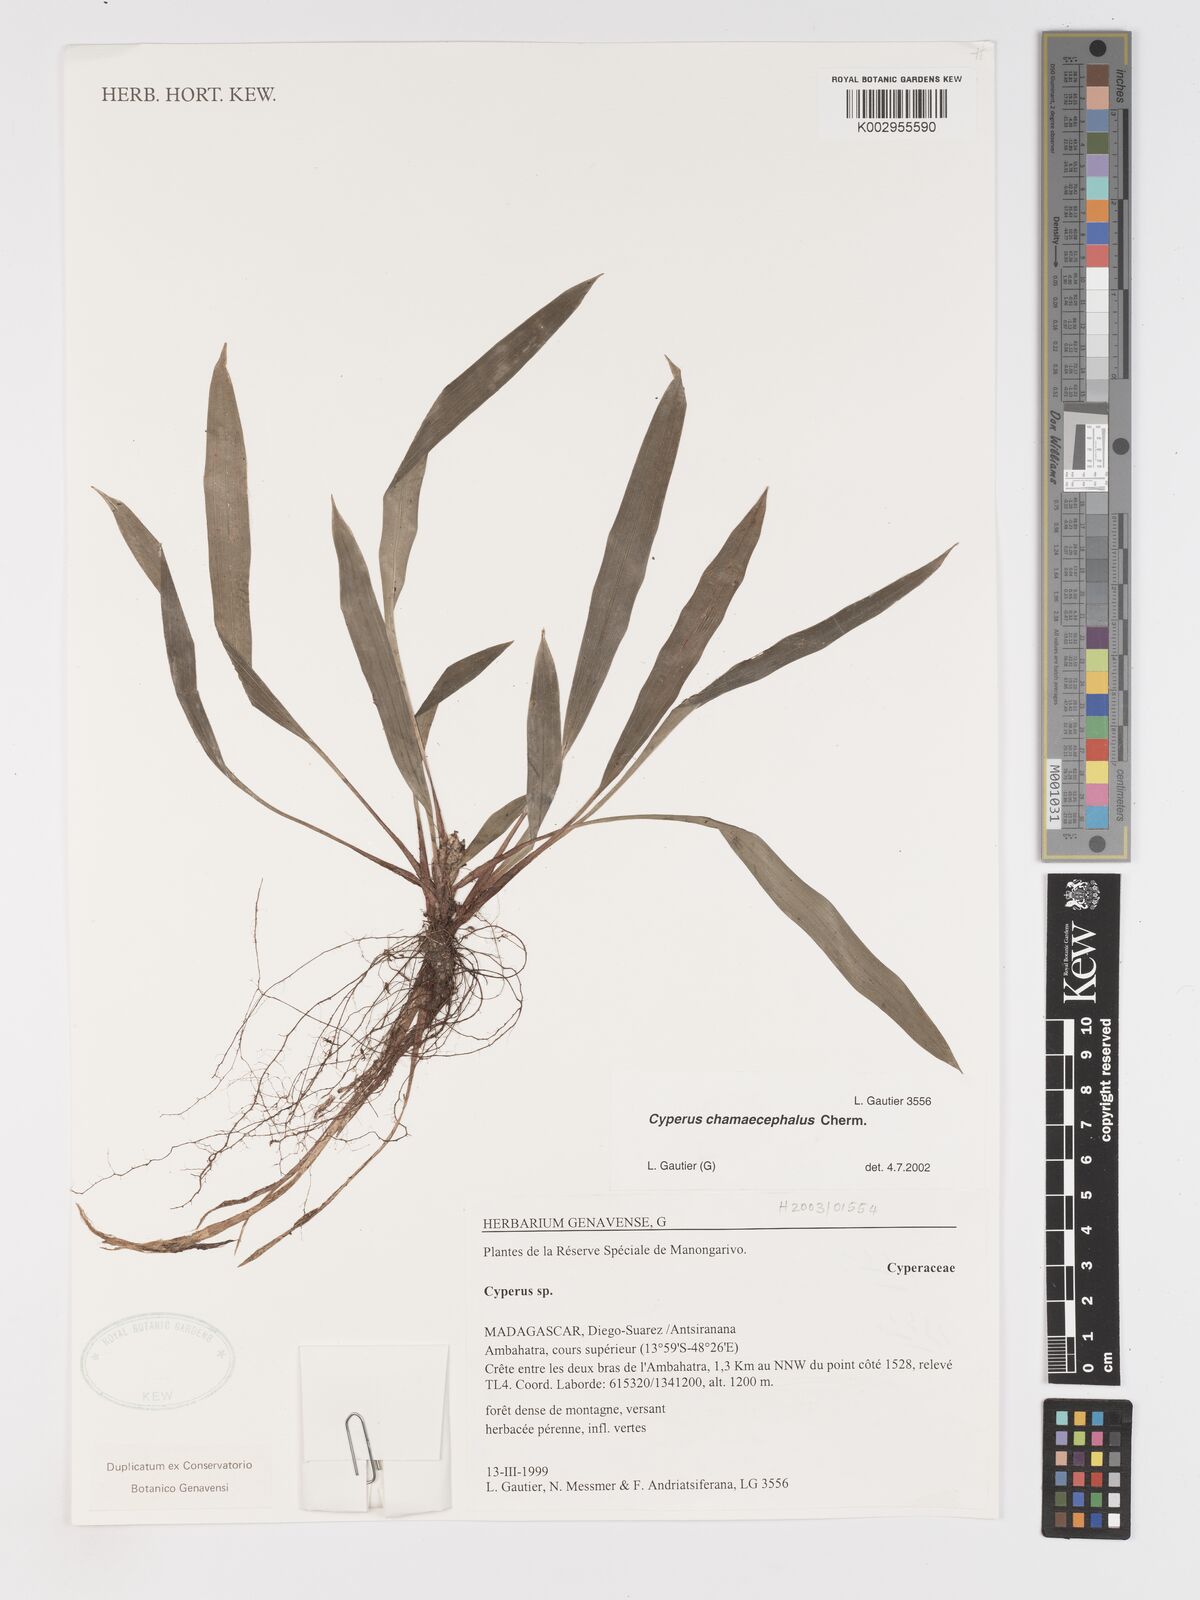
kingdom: Plantae
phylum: Tracheophyta
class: Liliopsida
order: Poales
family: Cyperaceae
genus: Cyperus
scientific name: Cyperus chamaecephalus
